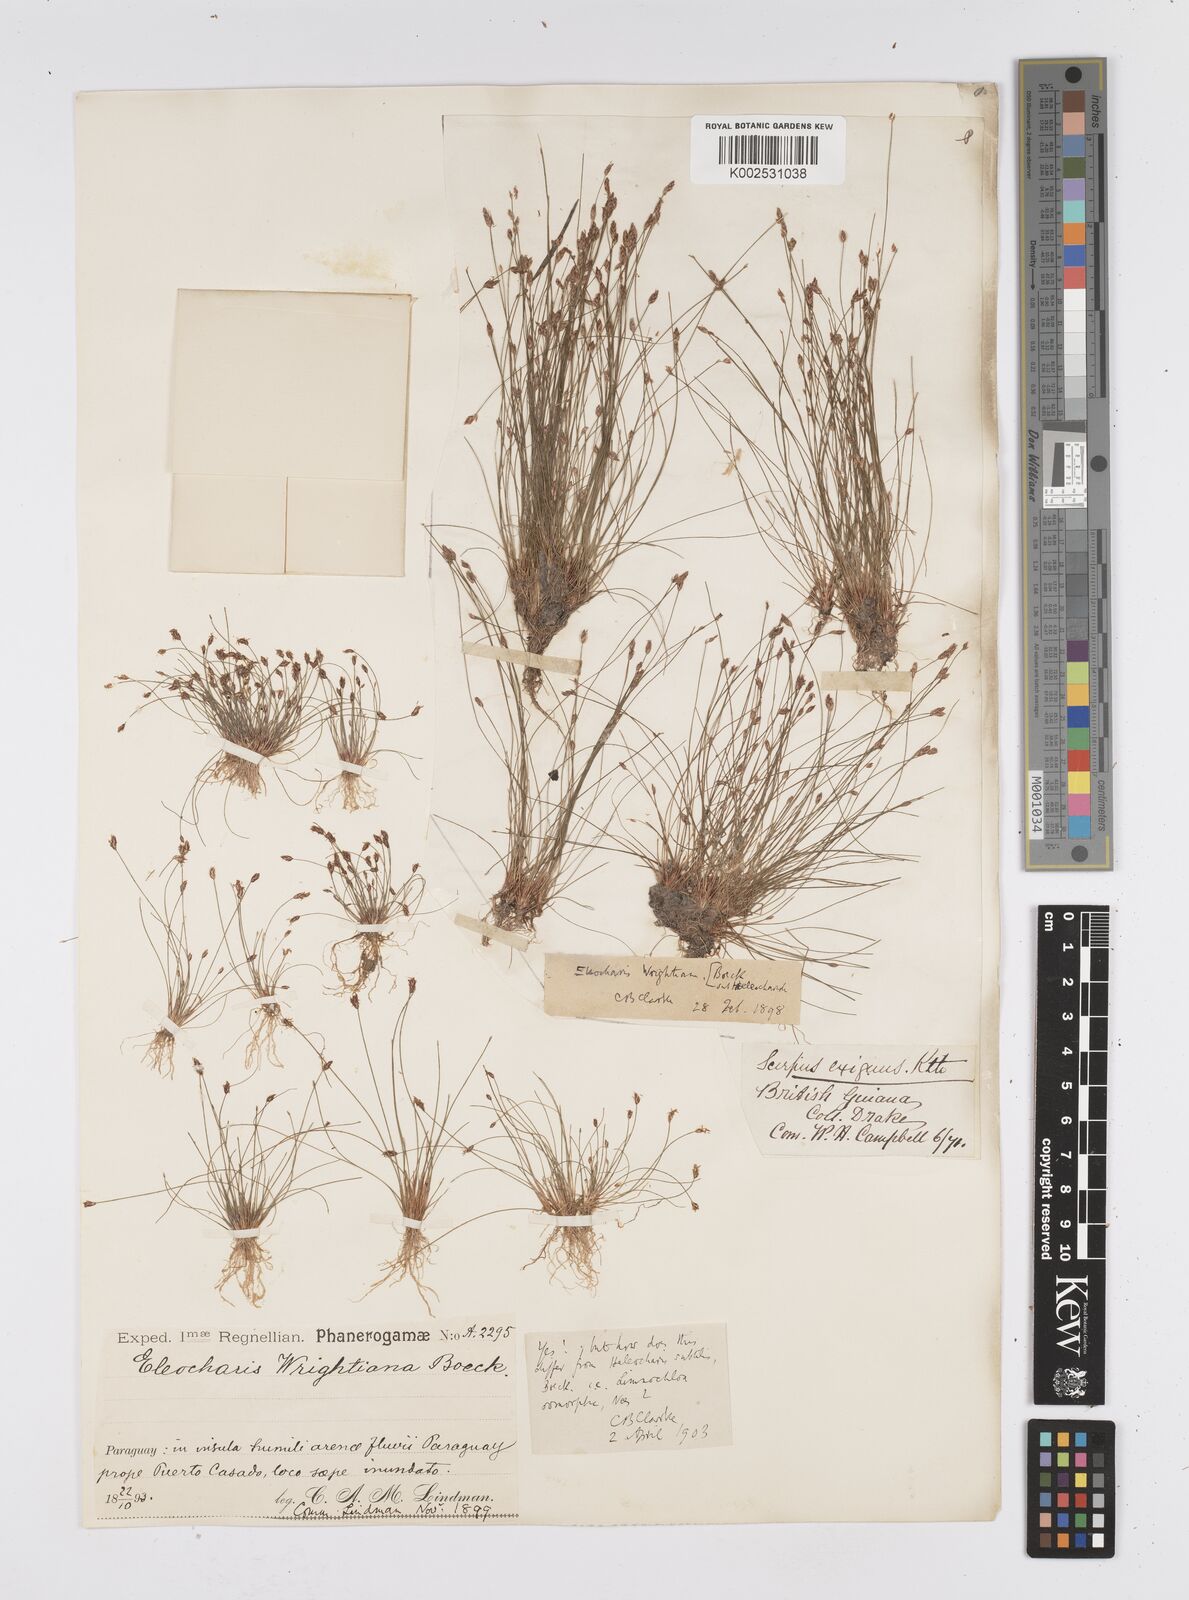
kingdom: Plantae
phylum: Tracheophyta
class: Liliopsida
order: Poales
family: Cyperaceae
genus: Eleocharis
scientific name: Eleocharis subfoliata
